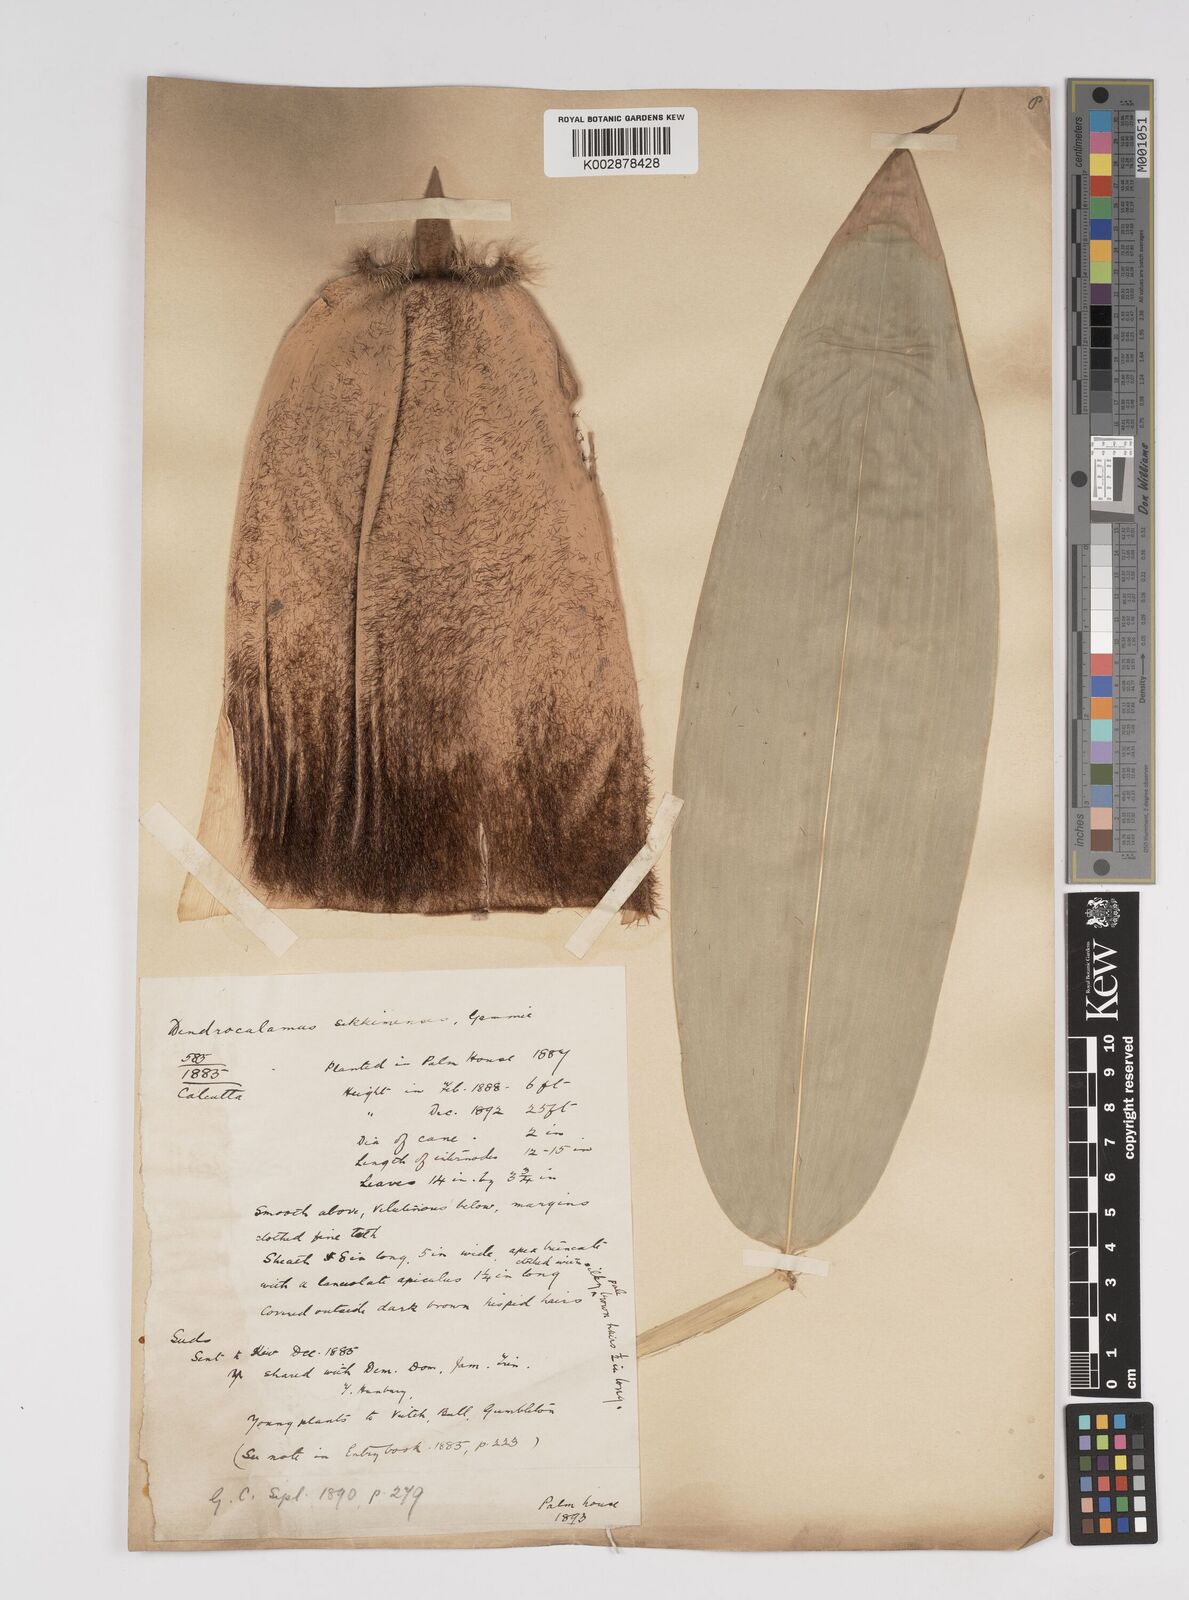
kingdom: Plantae
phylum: Tracheophyta
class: Liliopsida
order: Poales
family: Poaceae
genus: Dendrocalamus
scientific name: Dendrocalamus sikkimensis
